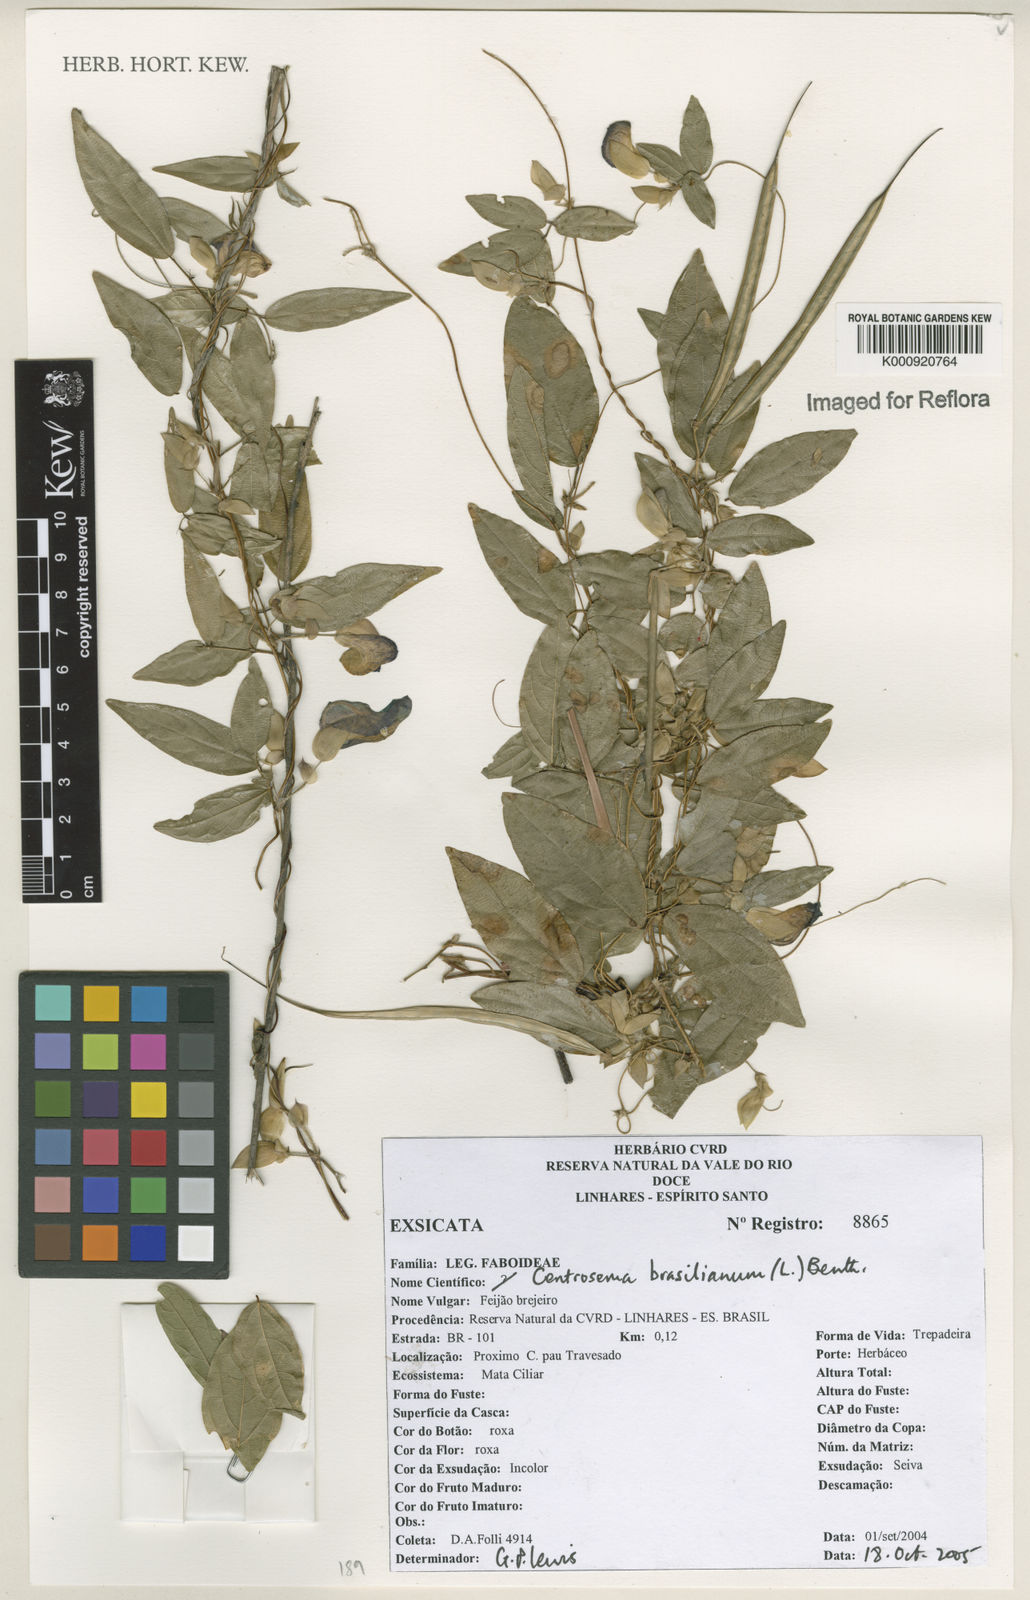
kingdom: Plantae
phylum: Tracheophyta
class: Magnoliopsida
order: Fabales
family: Fabaceae
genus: Centrosema
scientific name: Centrosema brasilianum
